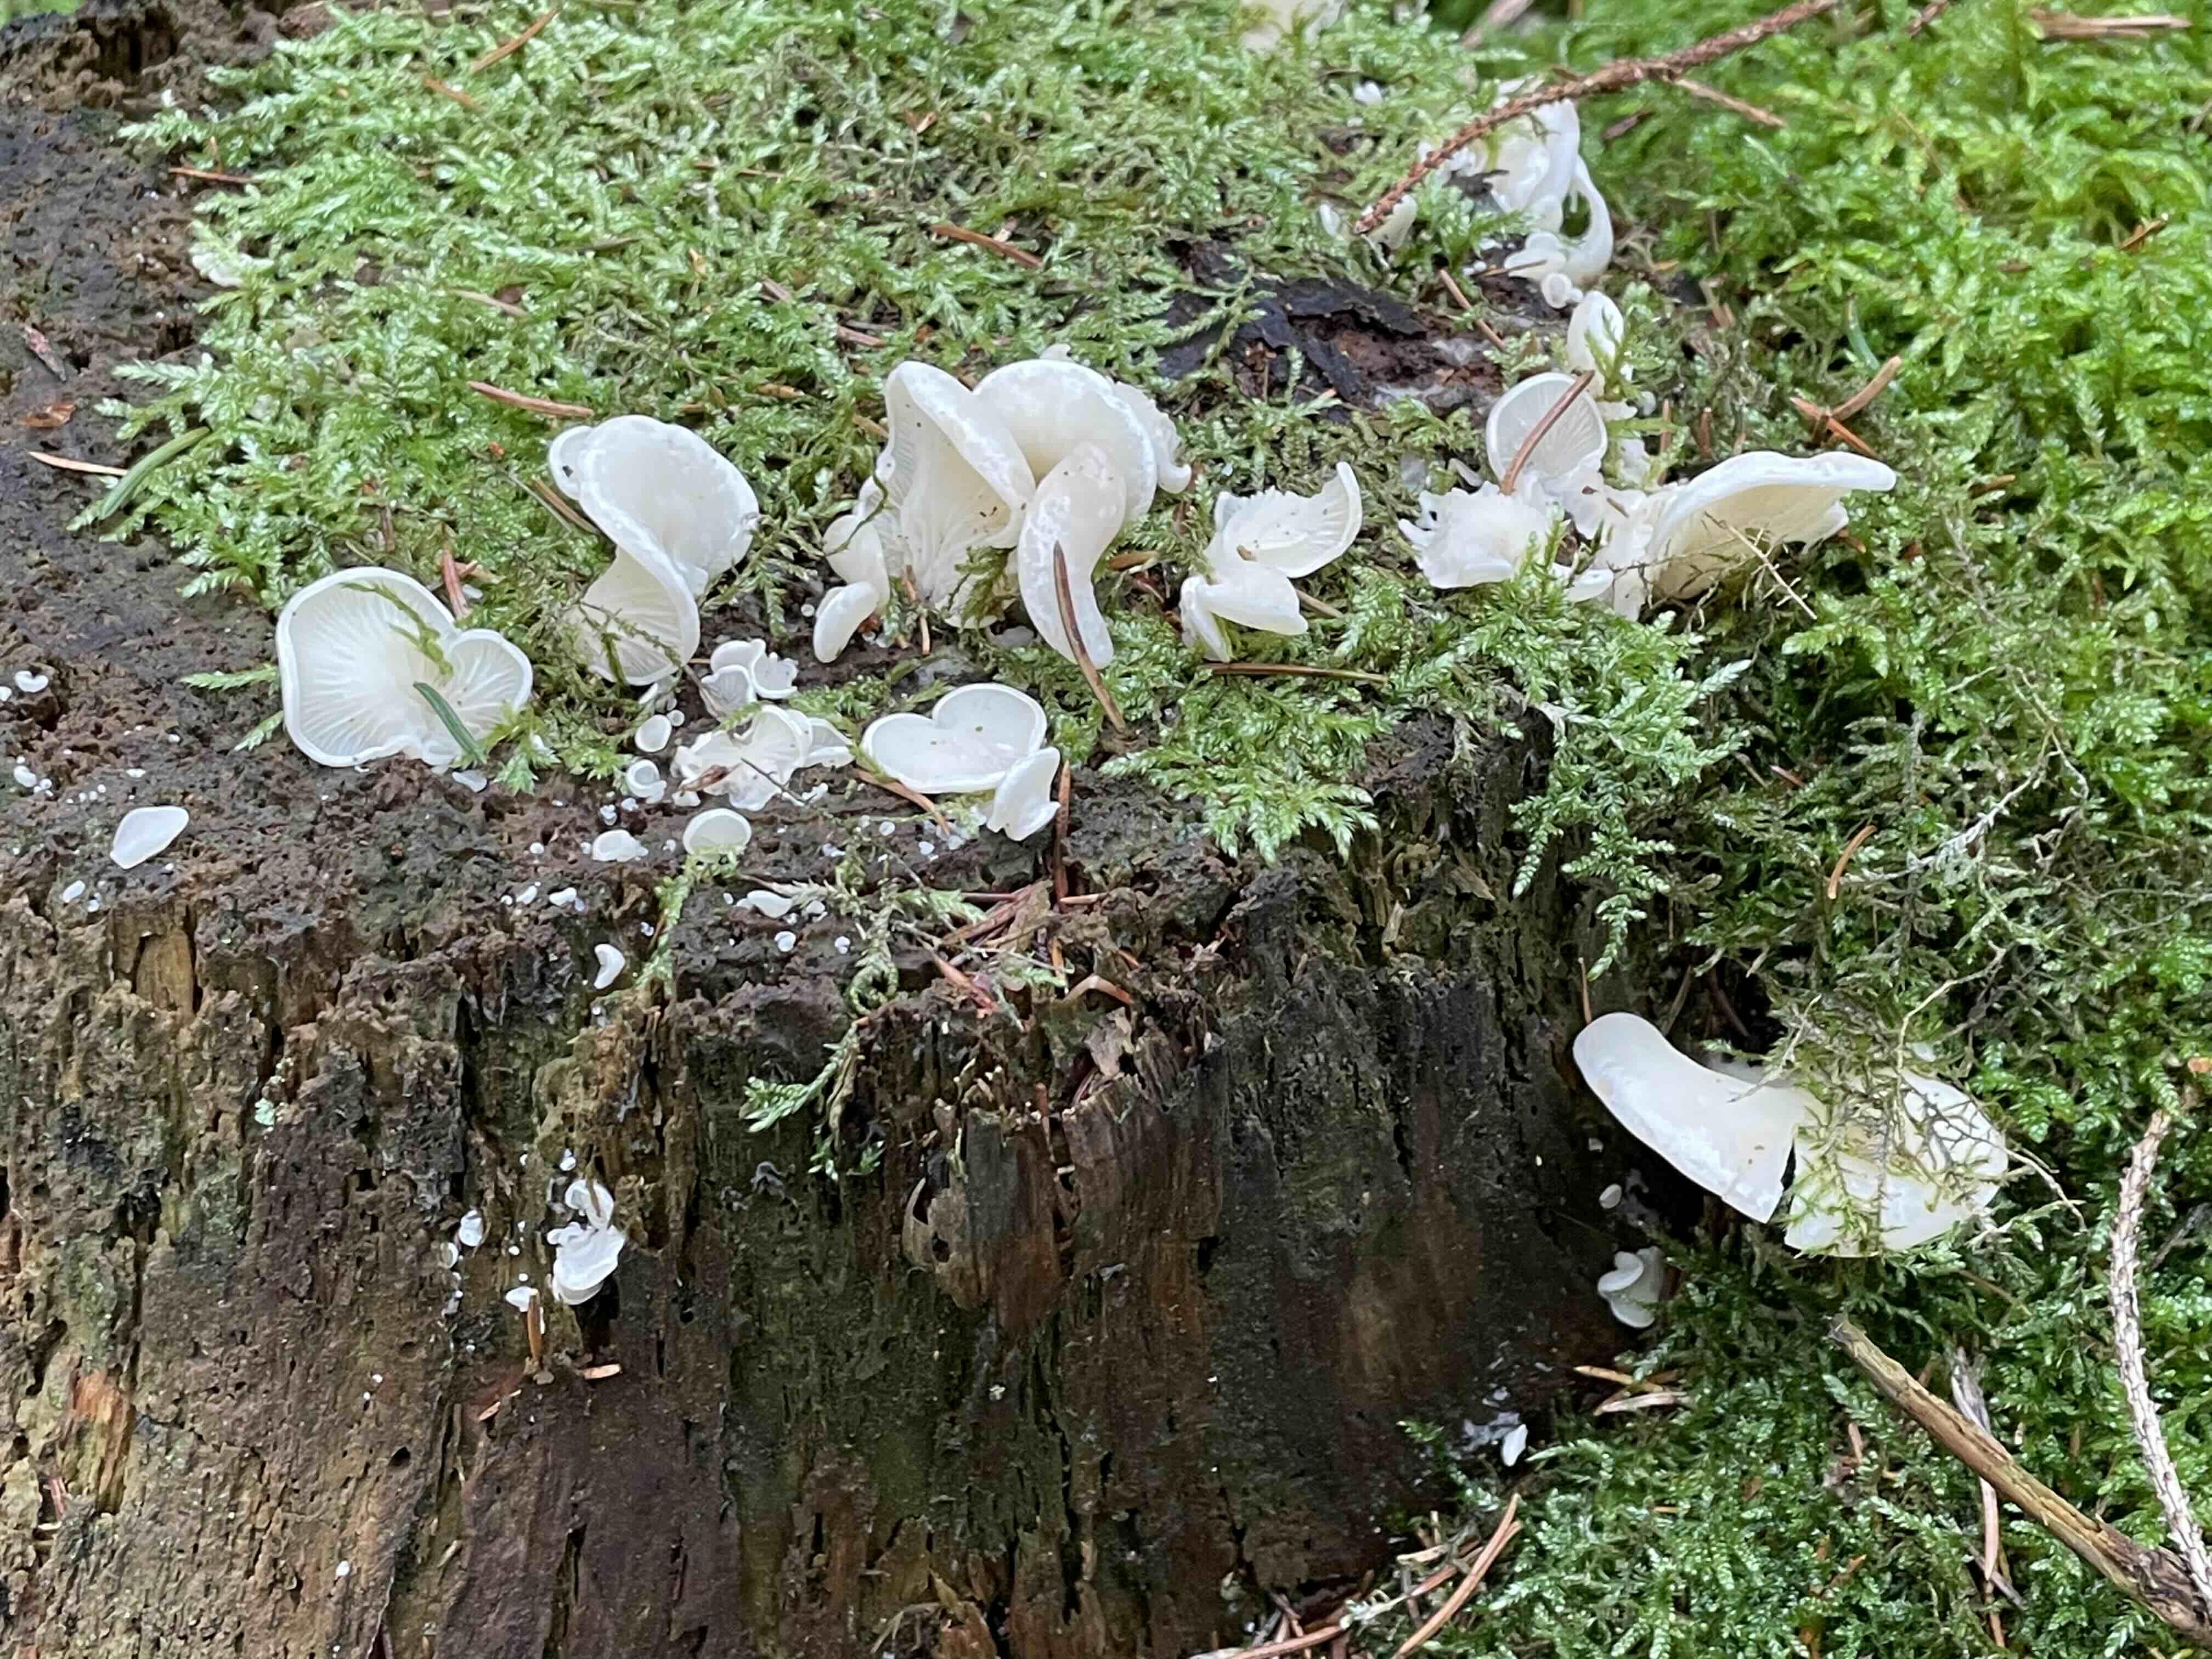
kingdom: Fungi
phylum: Basidiomycota
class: Agaricomycetes
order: Agaricales
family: Marasmiaceae
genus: Pleurocybella
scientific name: Pleurocybella porrigens
